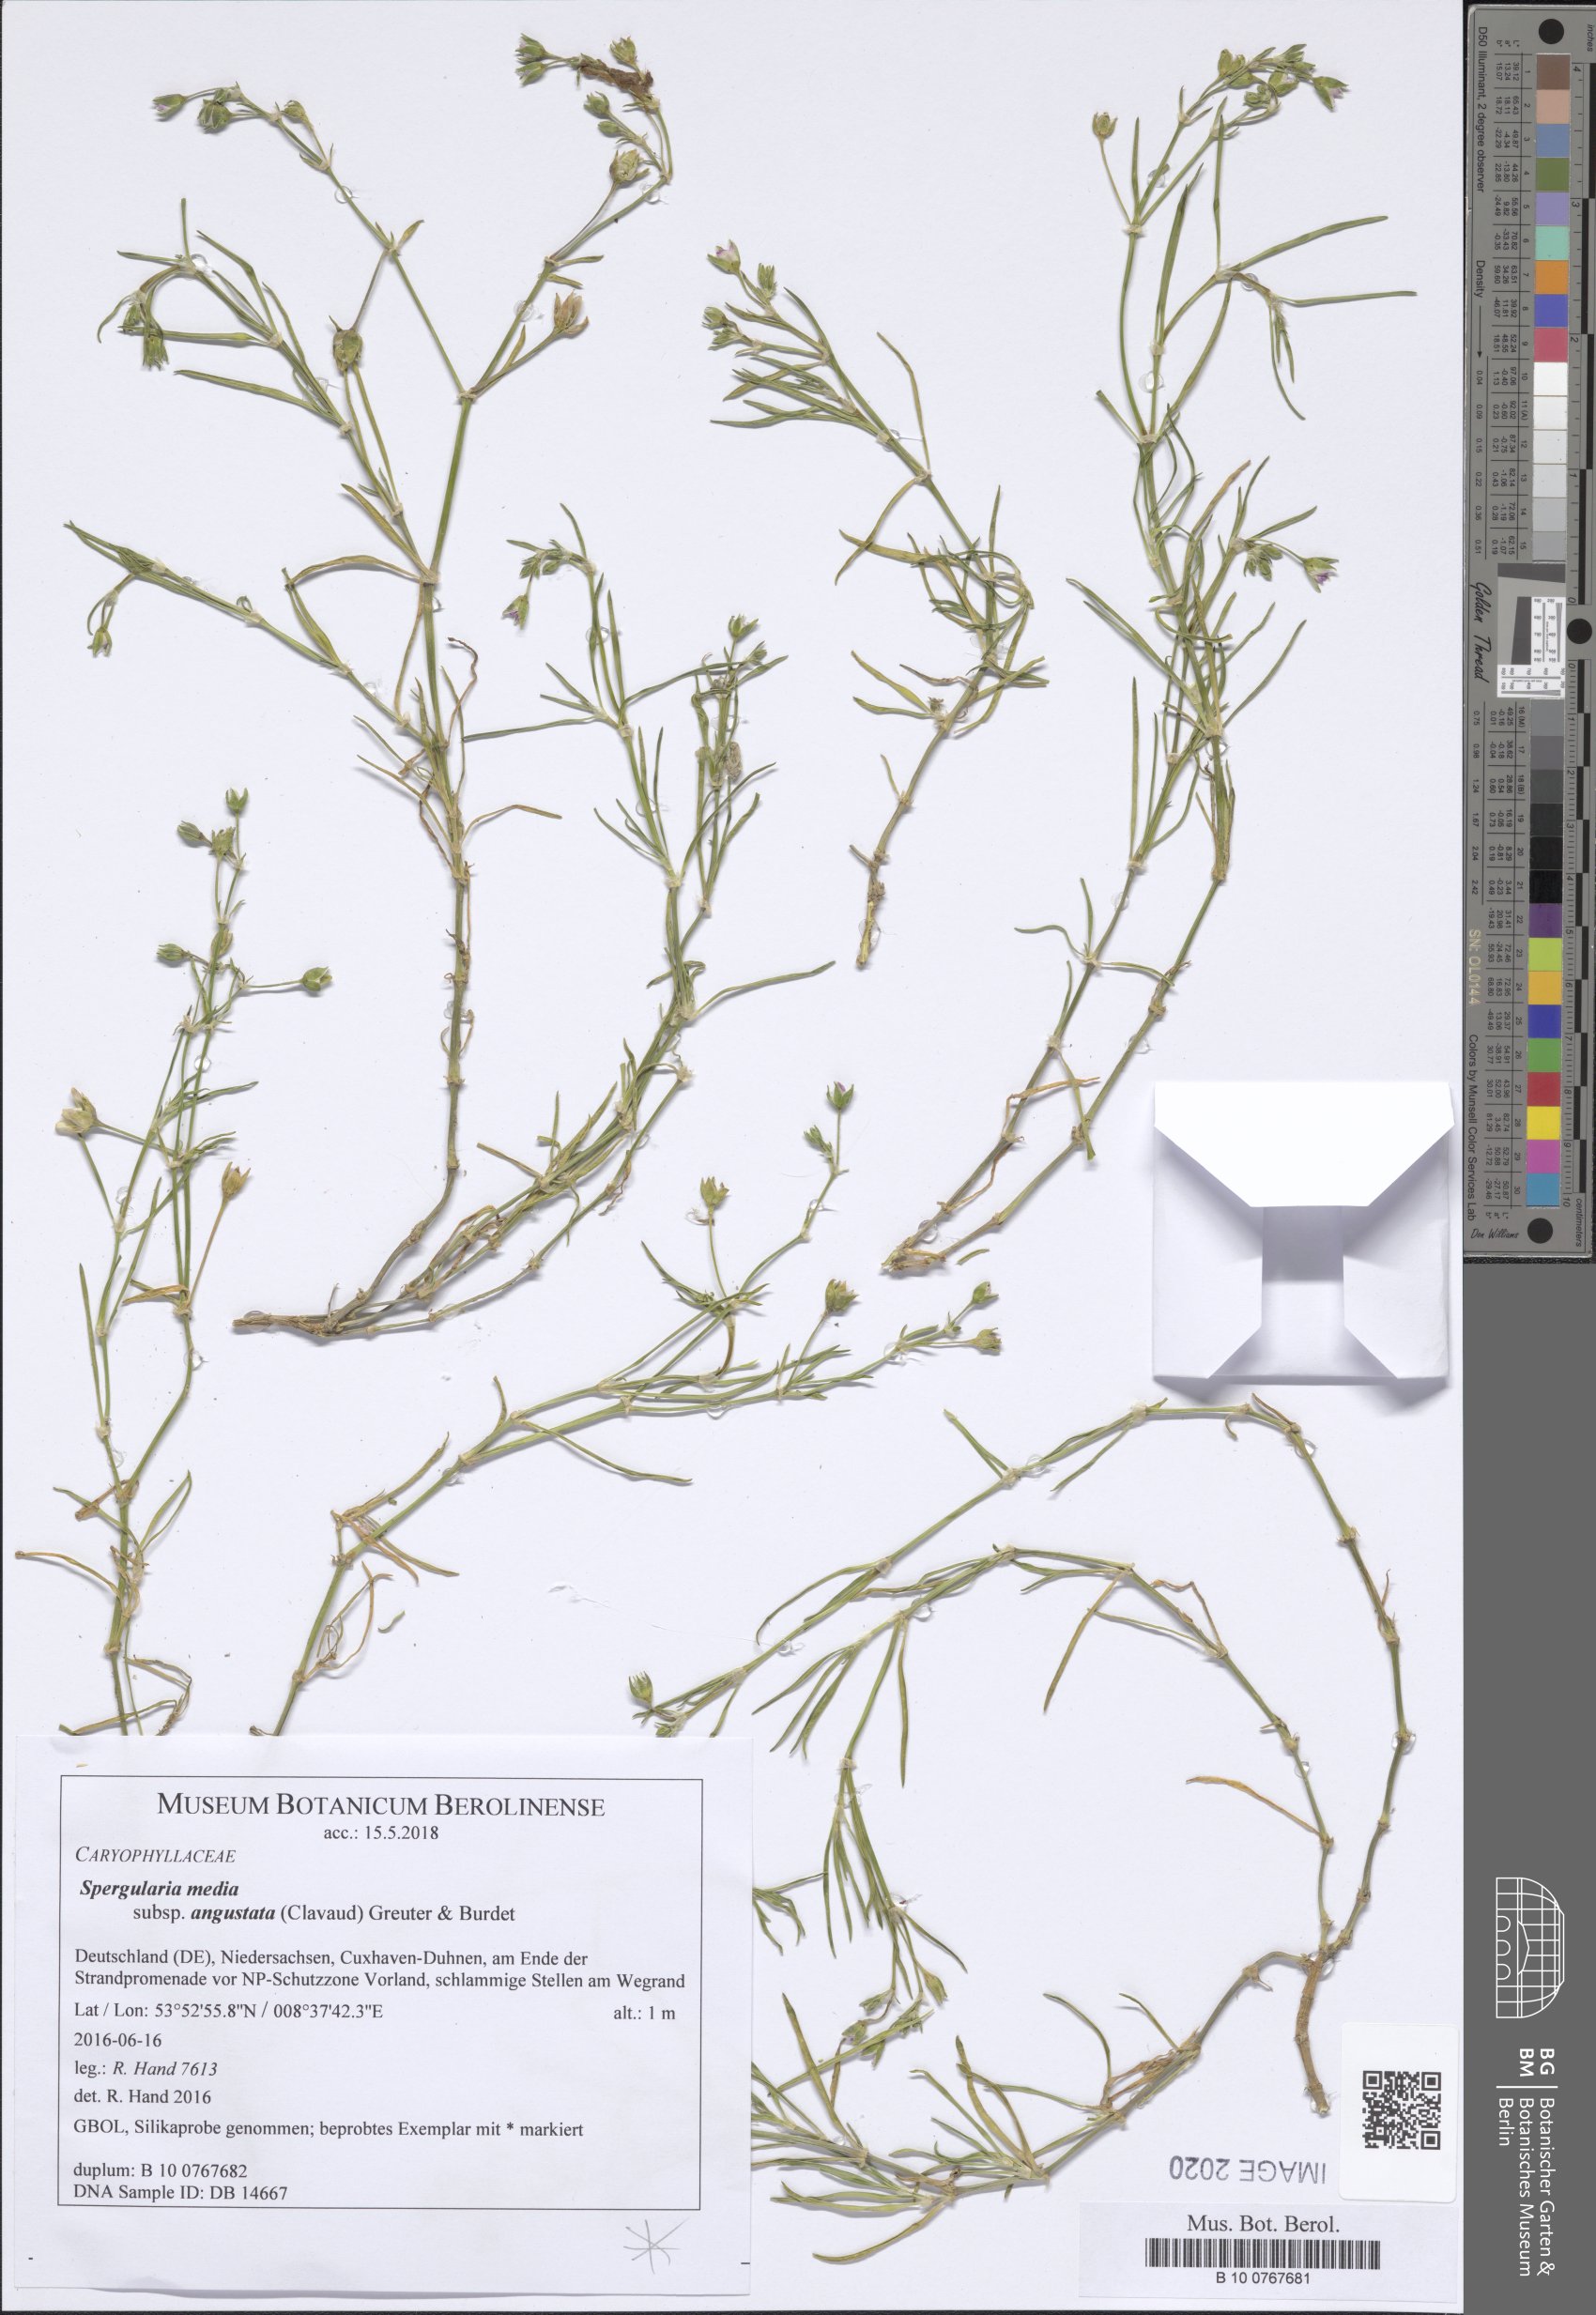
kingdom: Plantae
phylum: Tracheophyta
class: Magnoliopsida
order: Caryophyllales
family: Caryophyllaceae
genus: Spergularia
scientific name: Spergularia media
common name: Greater sea-spurrey
